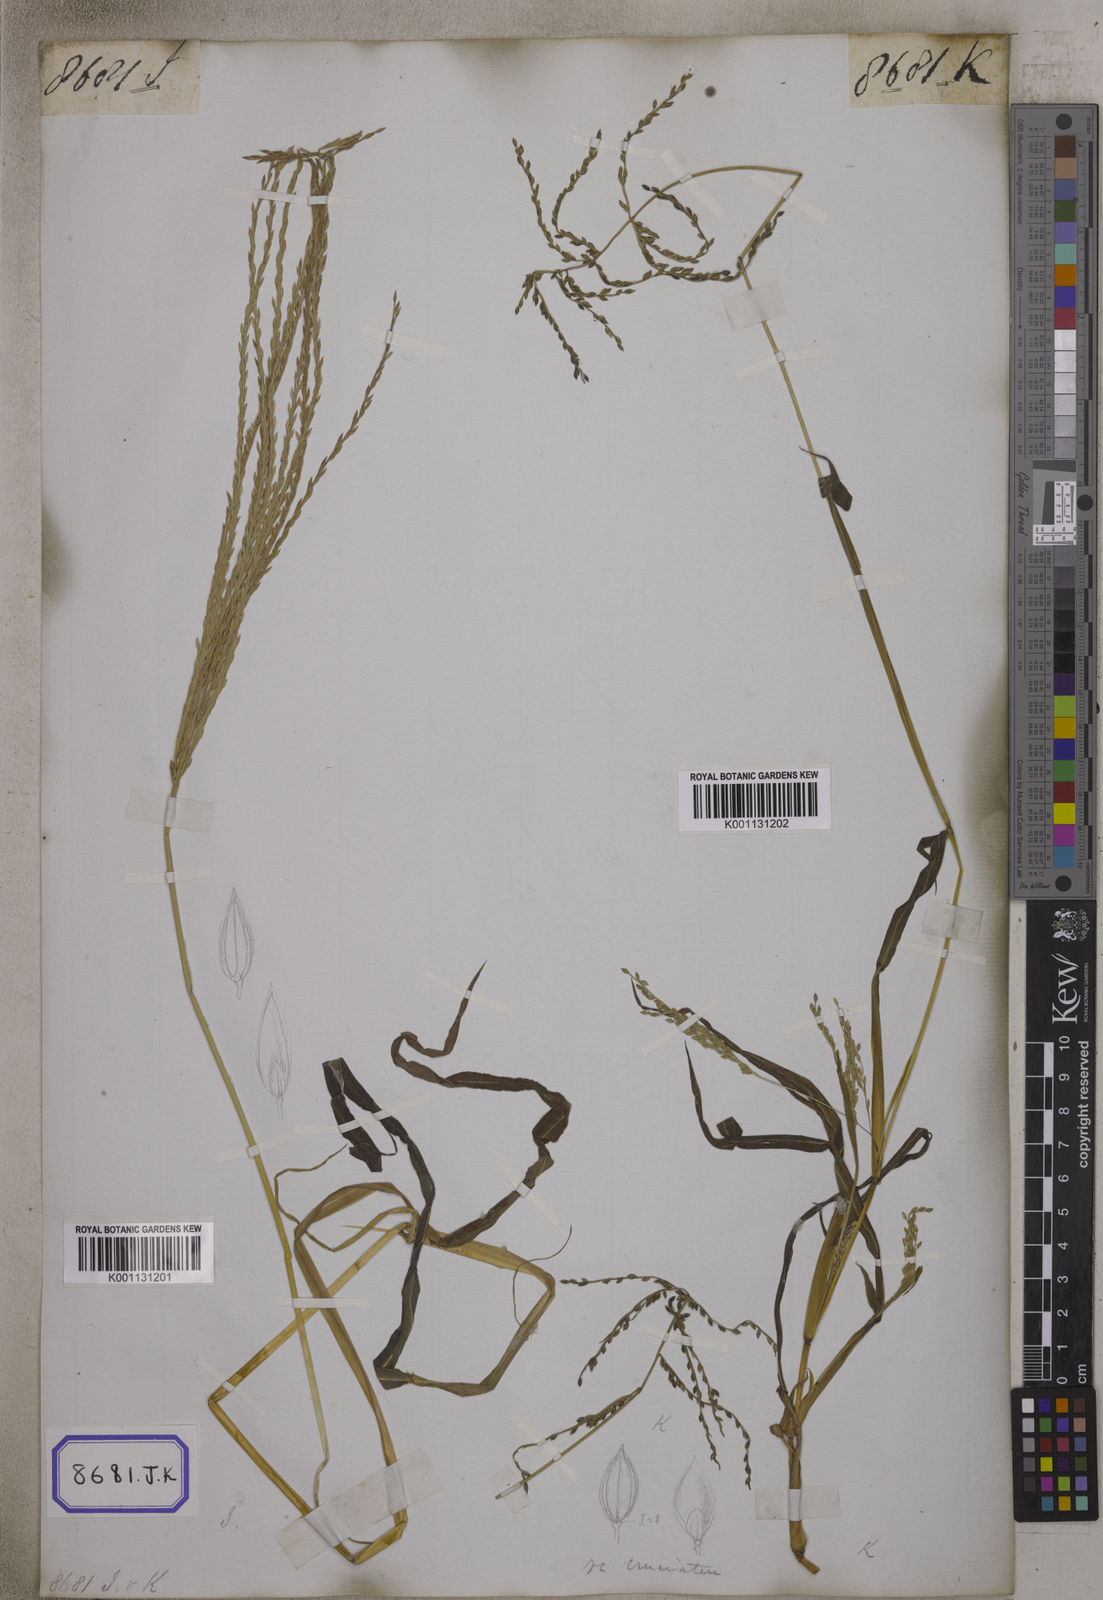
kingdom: Plantae
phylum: Tracheophyta
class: Liliopsida
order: Poales
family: Poaceae
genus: Digitaria
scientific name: Digitaria sanguinalis
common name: Hairy crabgrass
